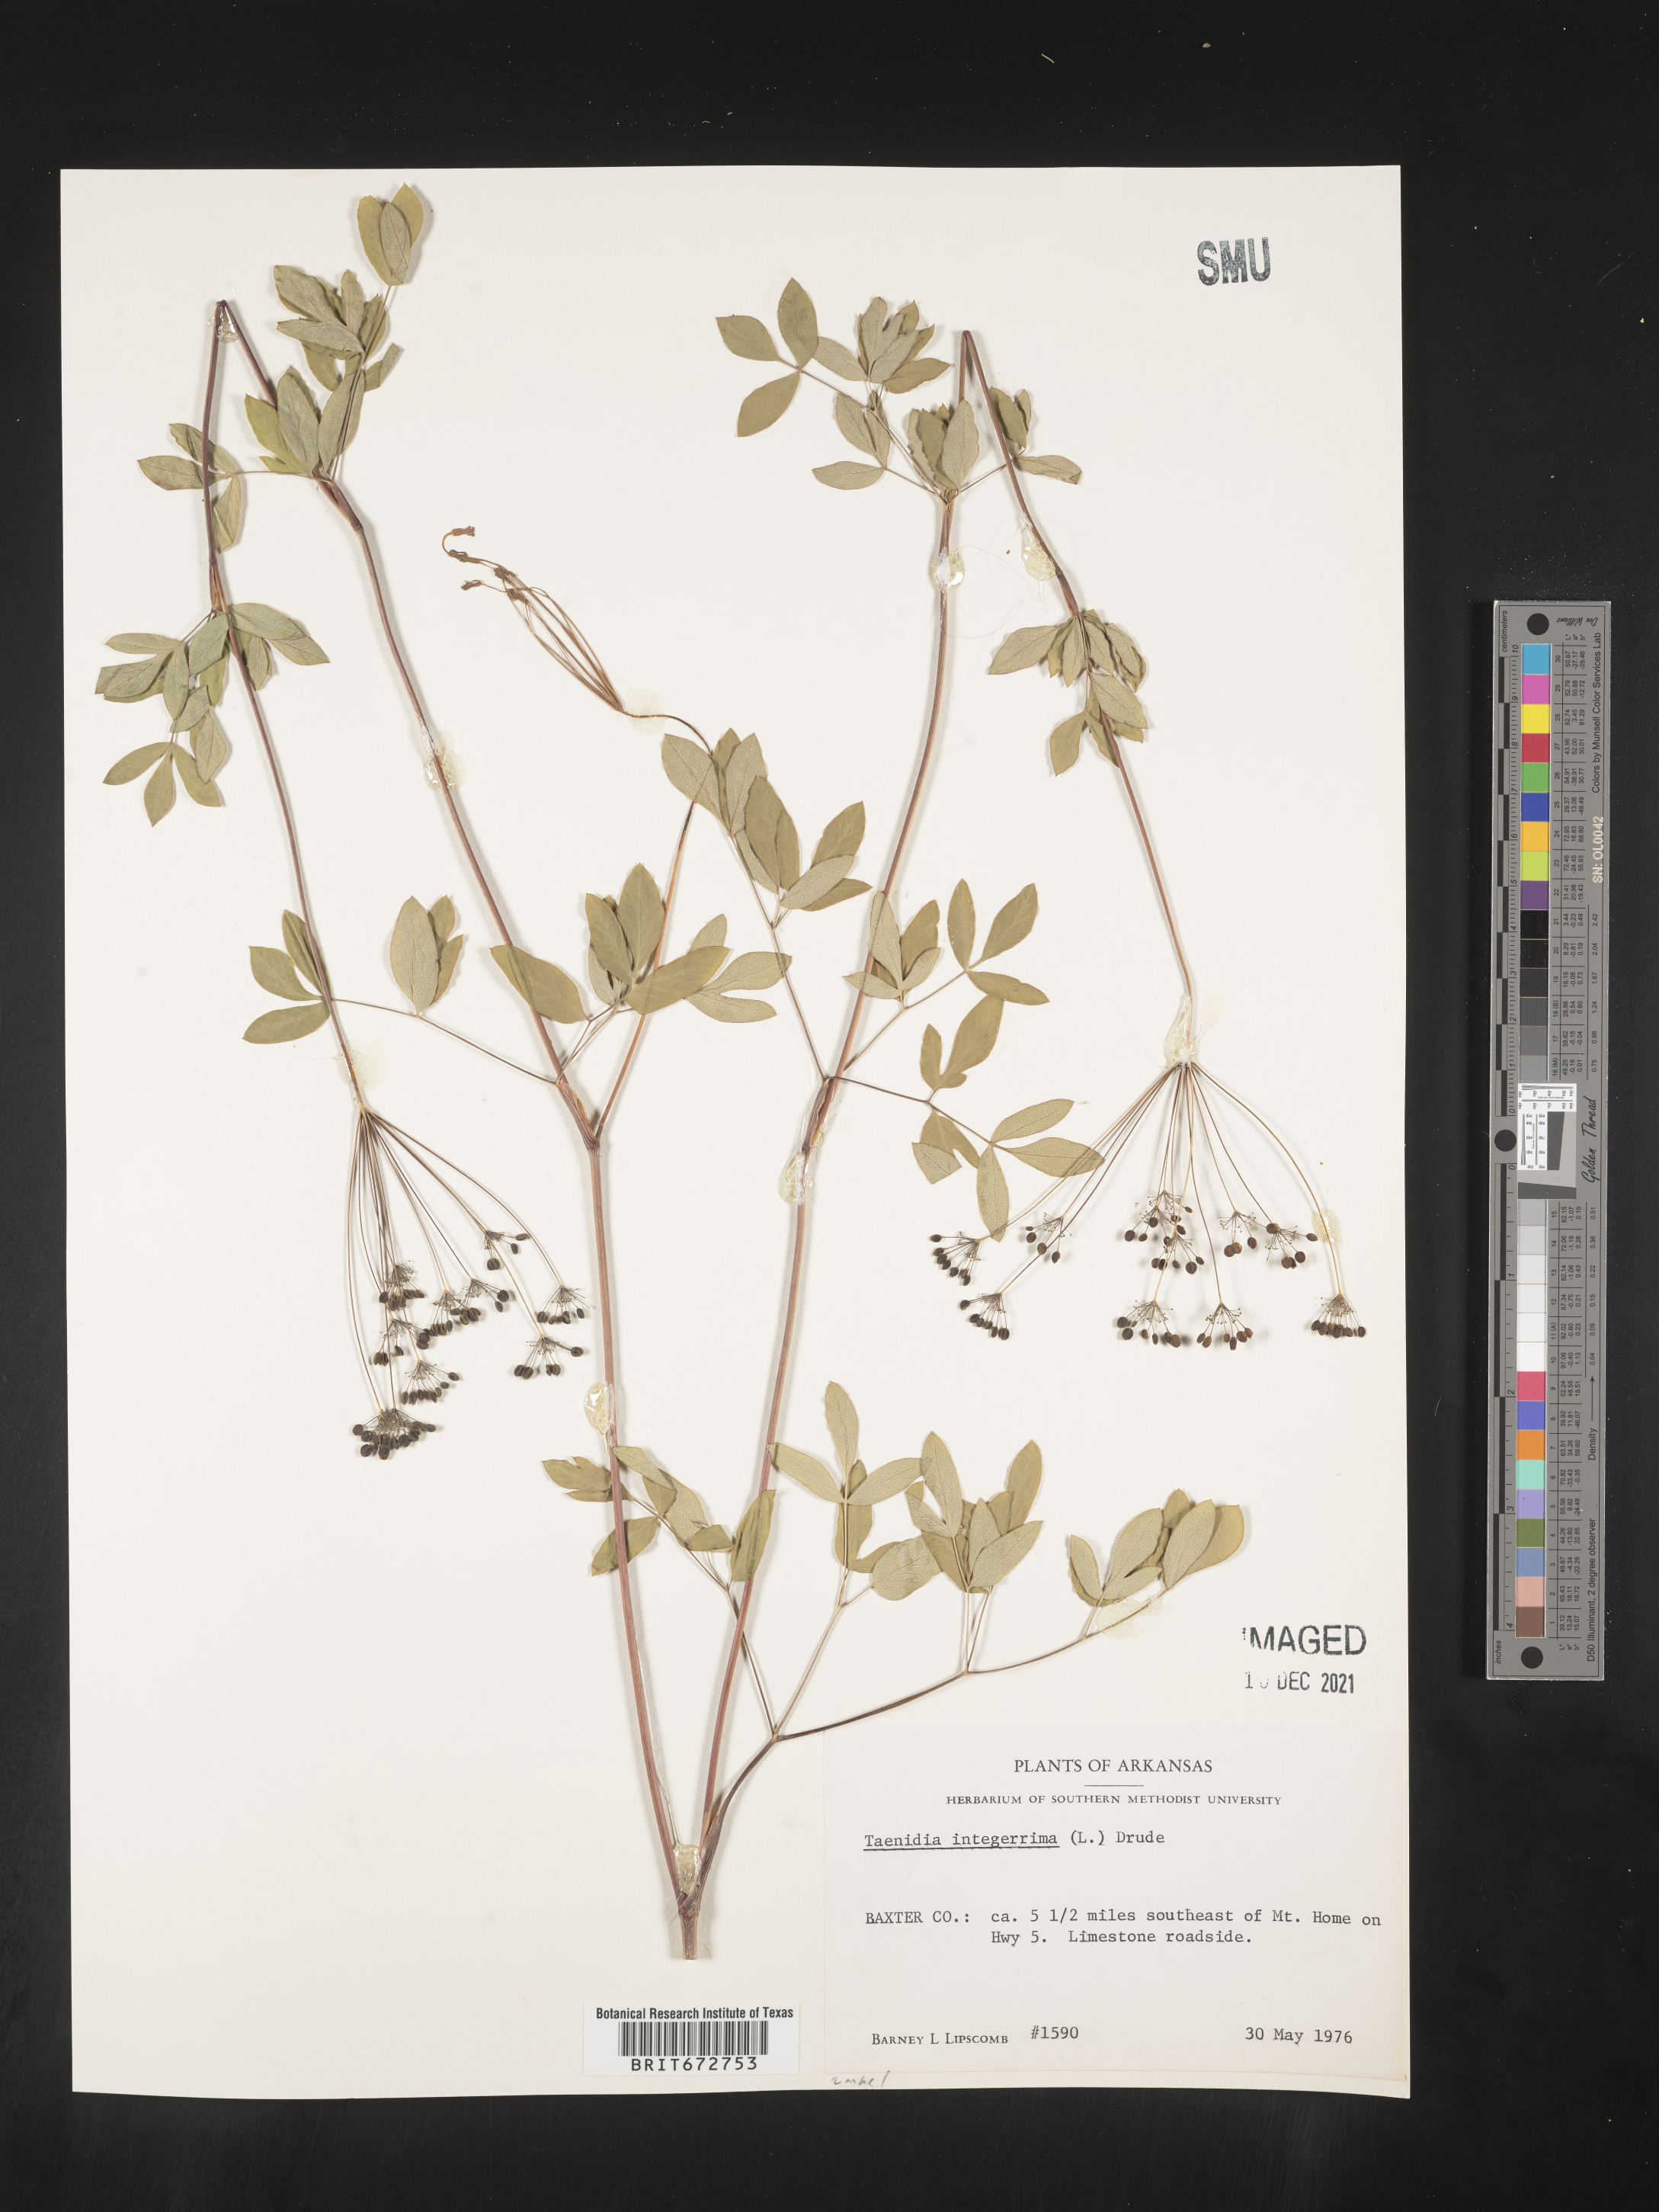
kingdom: Plantae
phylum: Tracheophyta
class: Magnoliopsida
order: Apiales
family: Apiaceae
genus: Taenidia
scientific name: Taenidia integerrima
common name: Golden alexander
